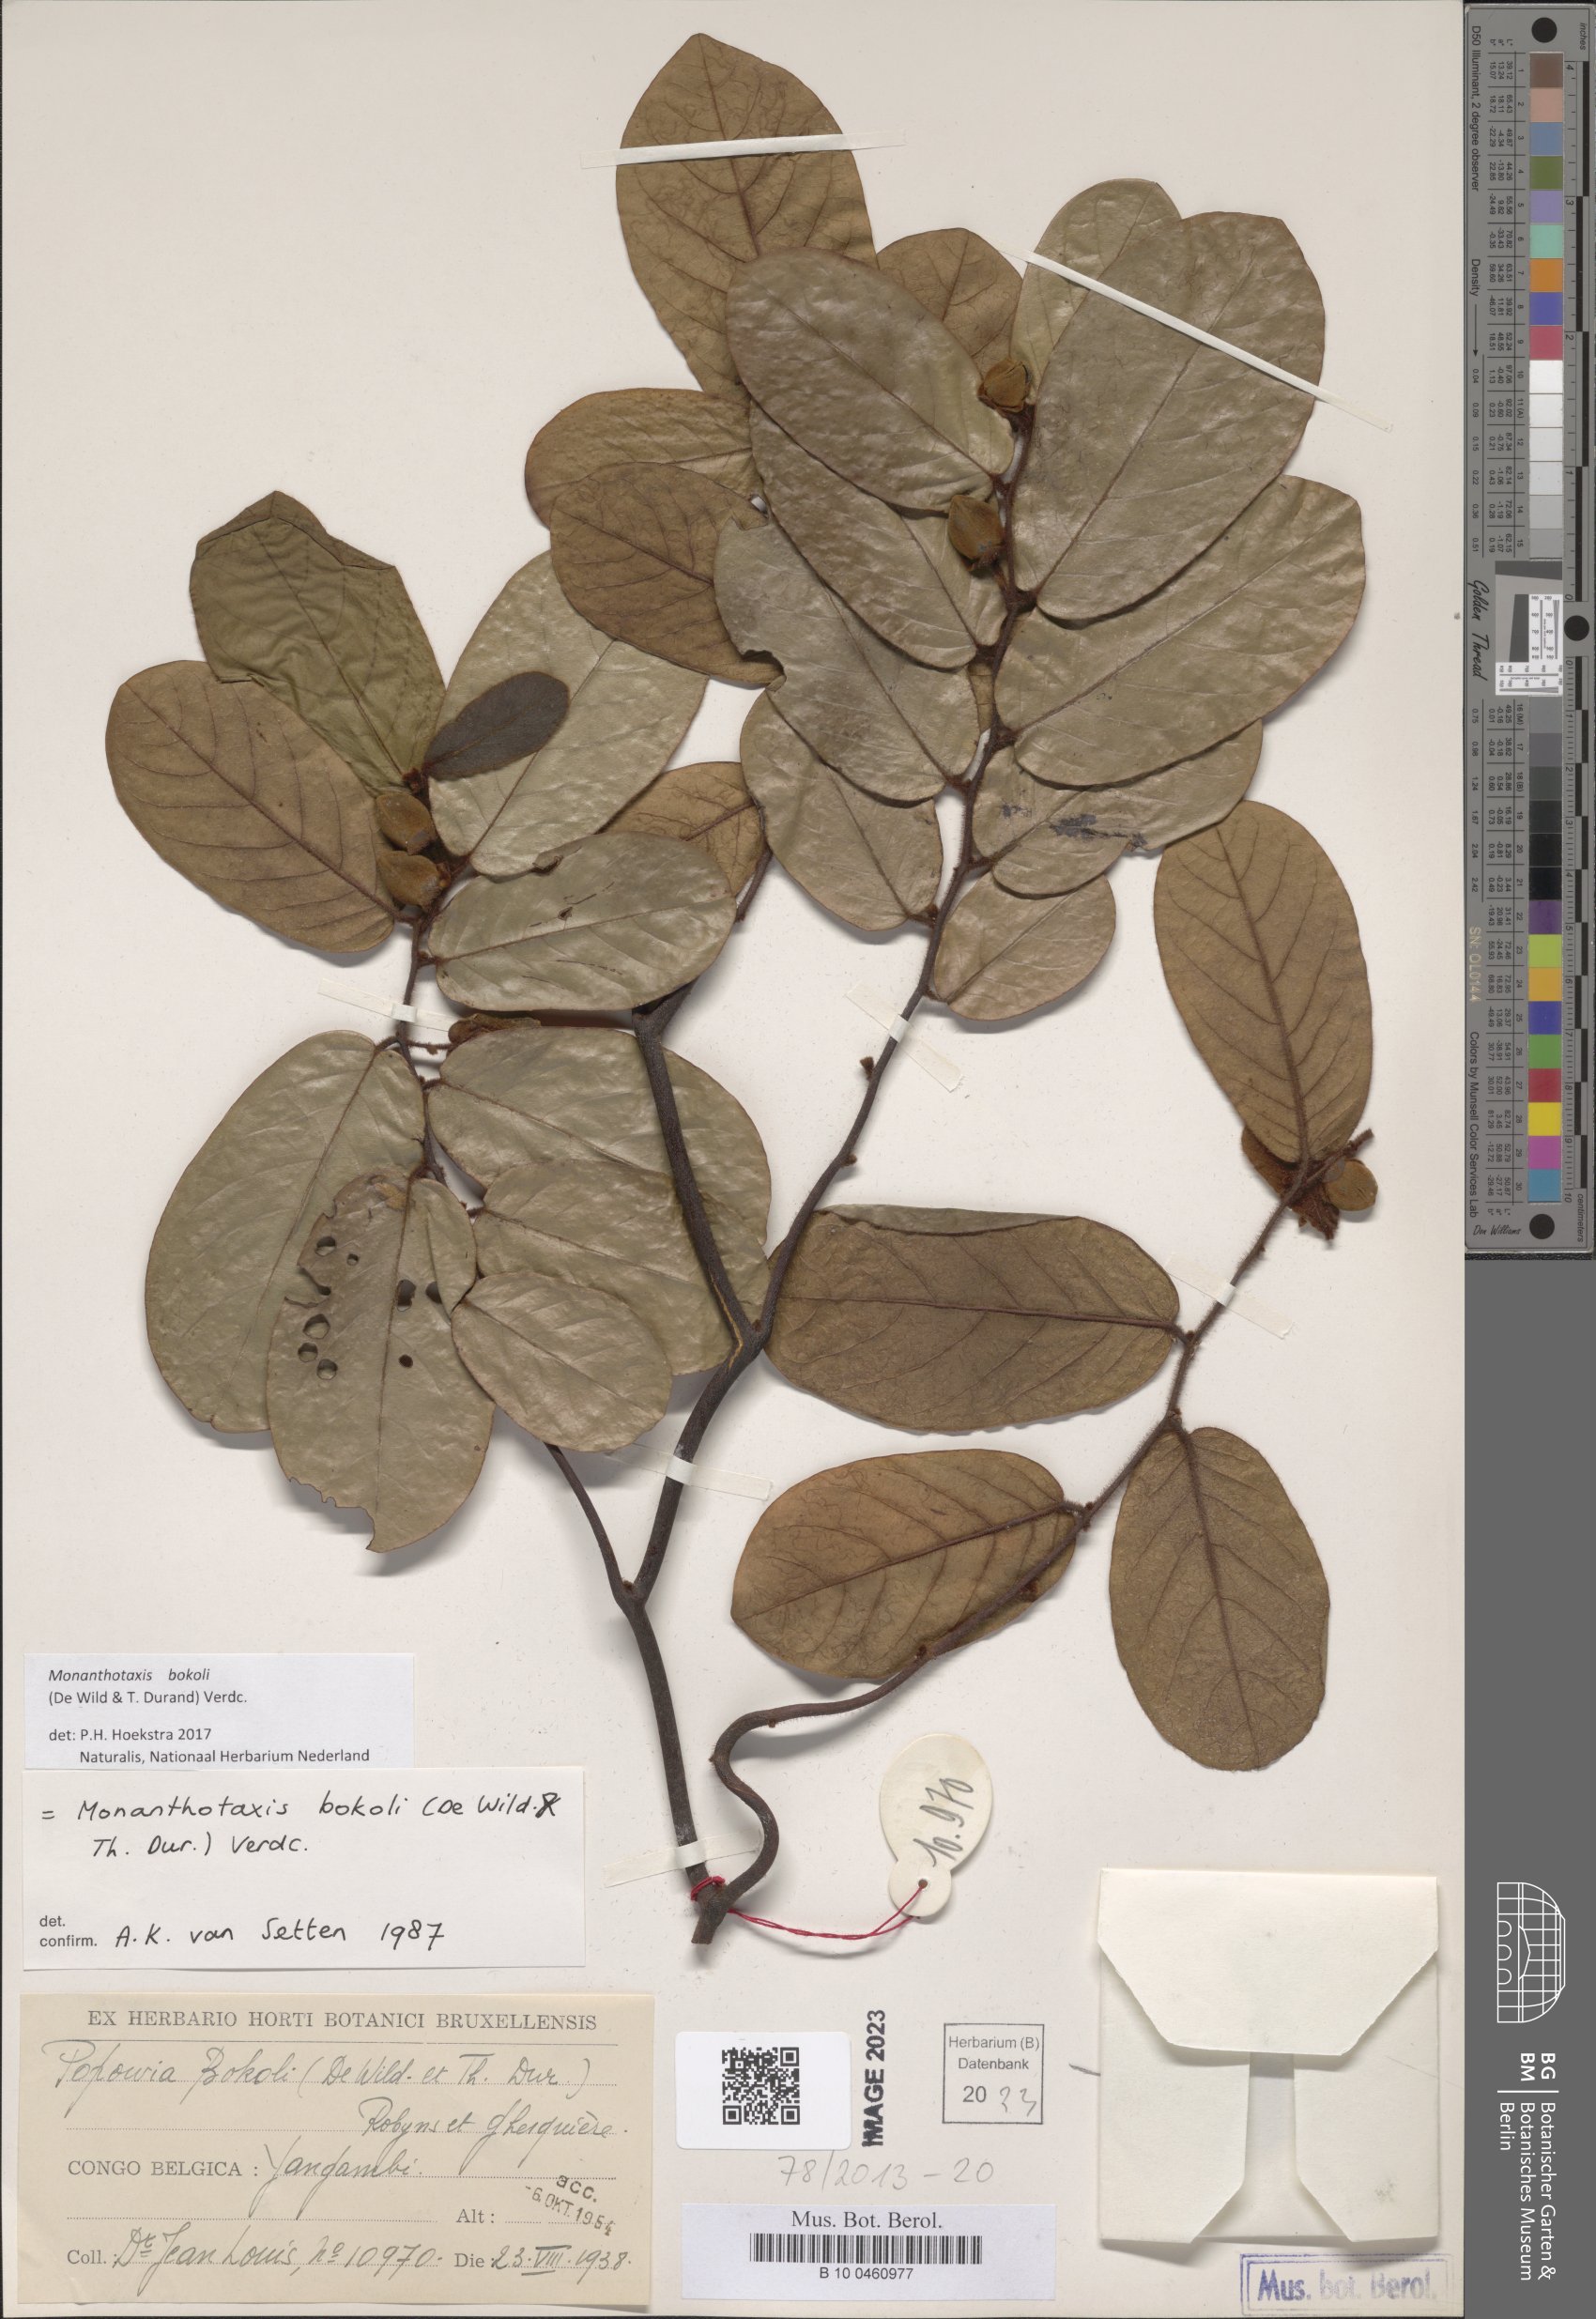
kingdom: Plantae
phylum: Tracheophyta
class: Magnoliopsida
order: Magnoliales
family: Annonaceae
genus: Monanthotaxis
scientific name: Monanthotaxis bokoli
